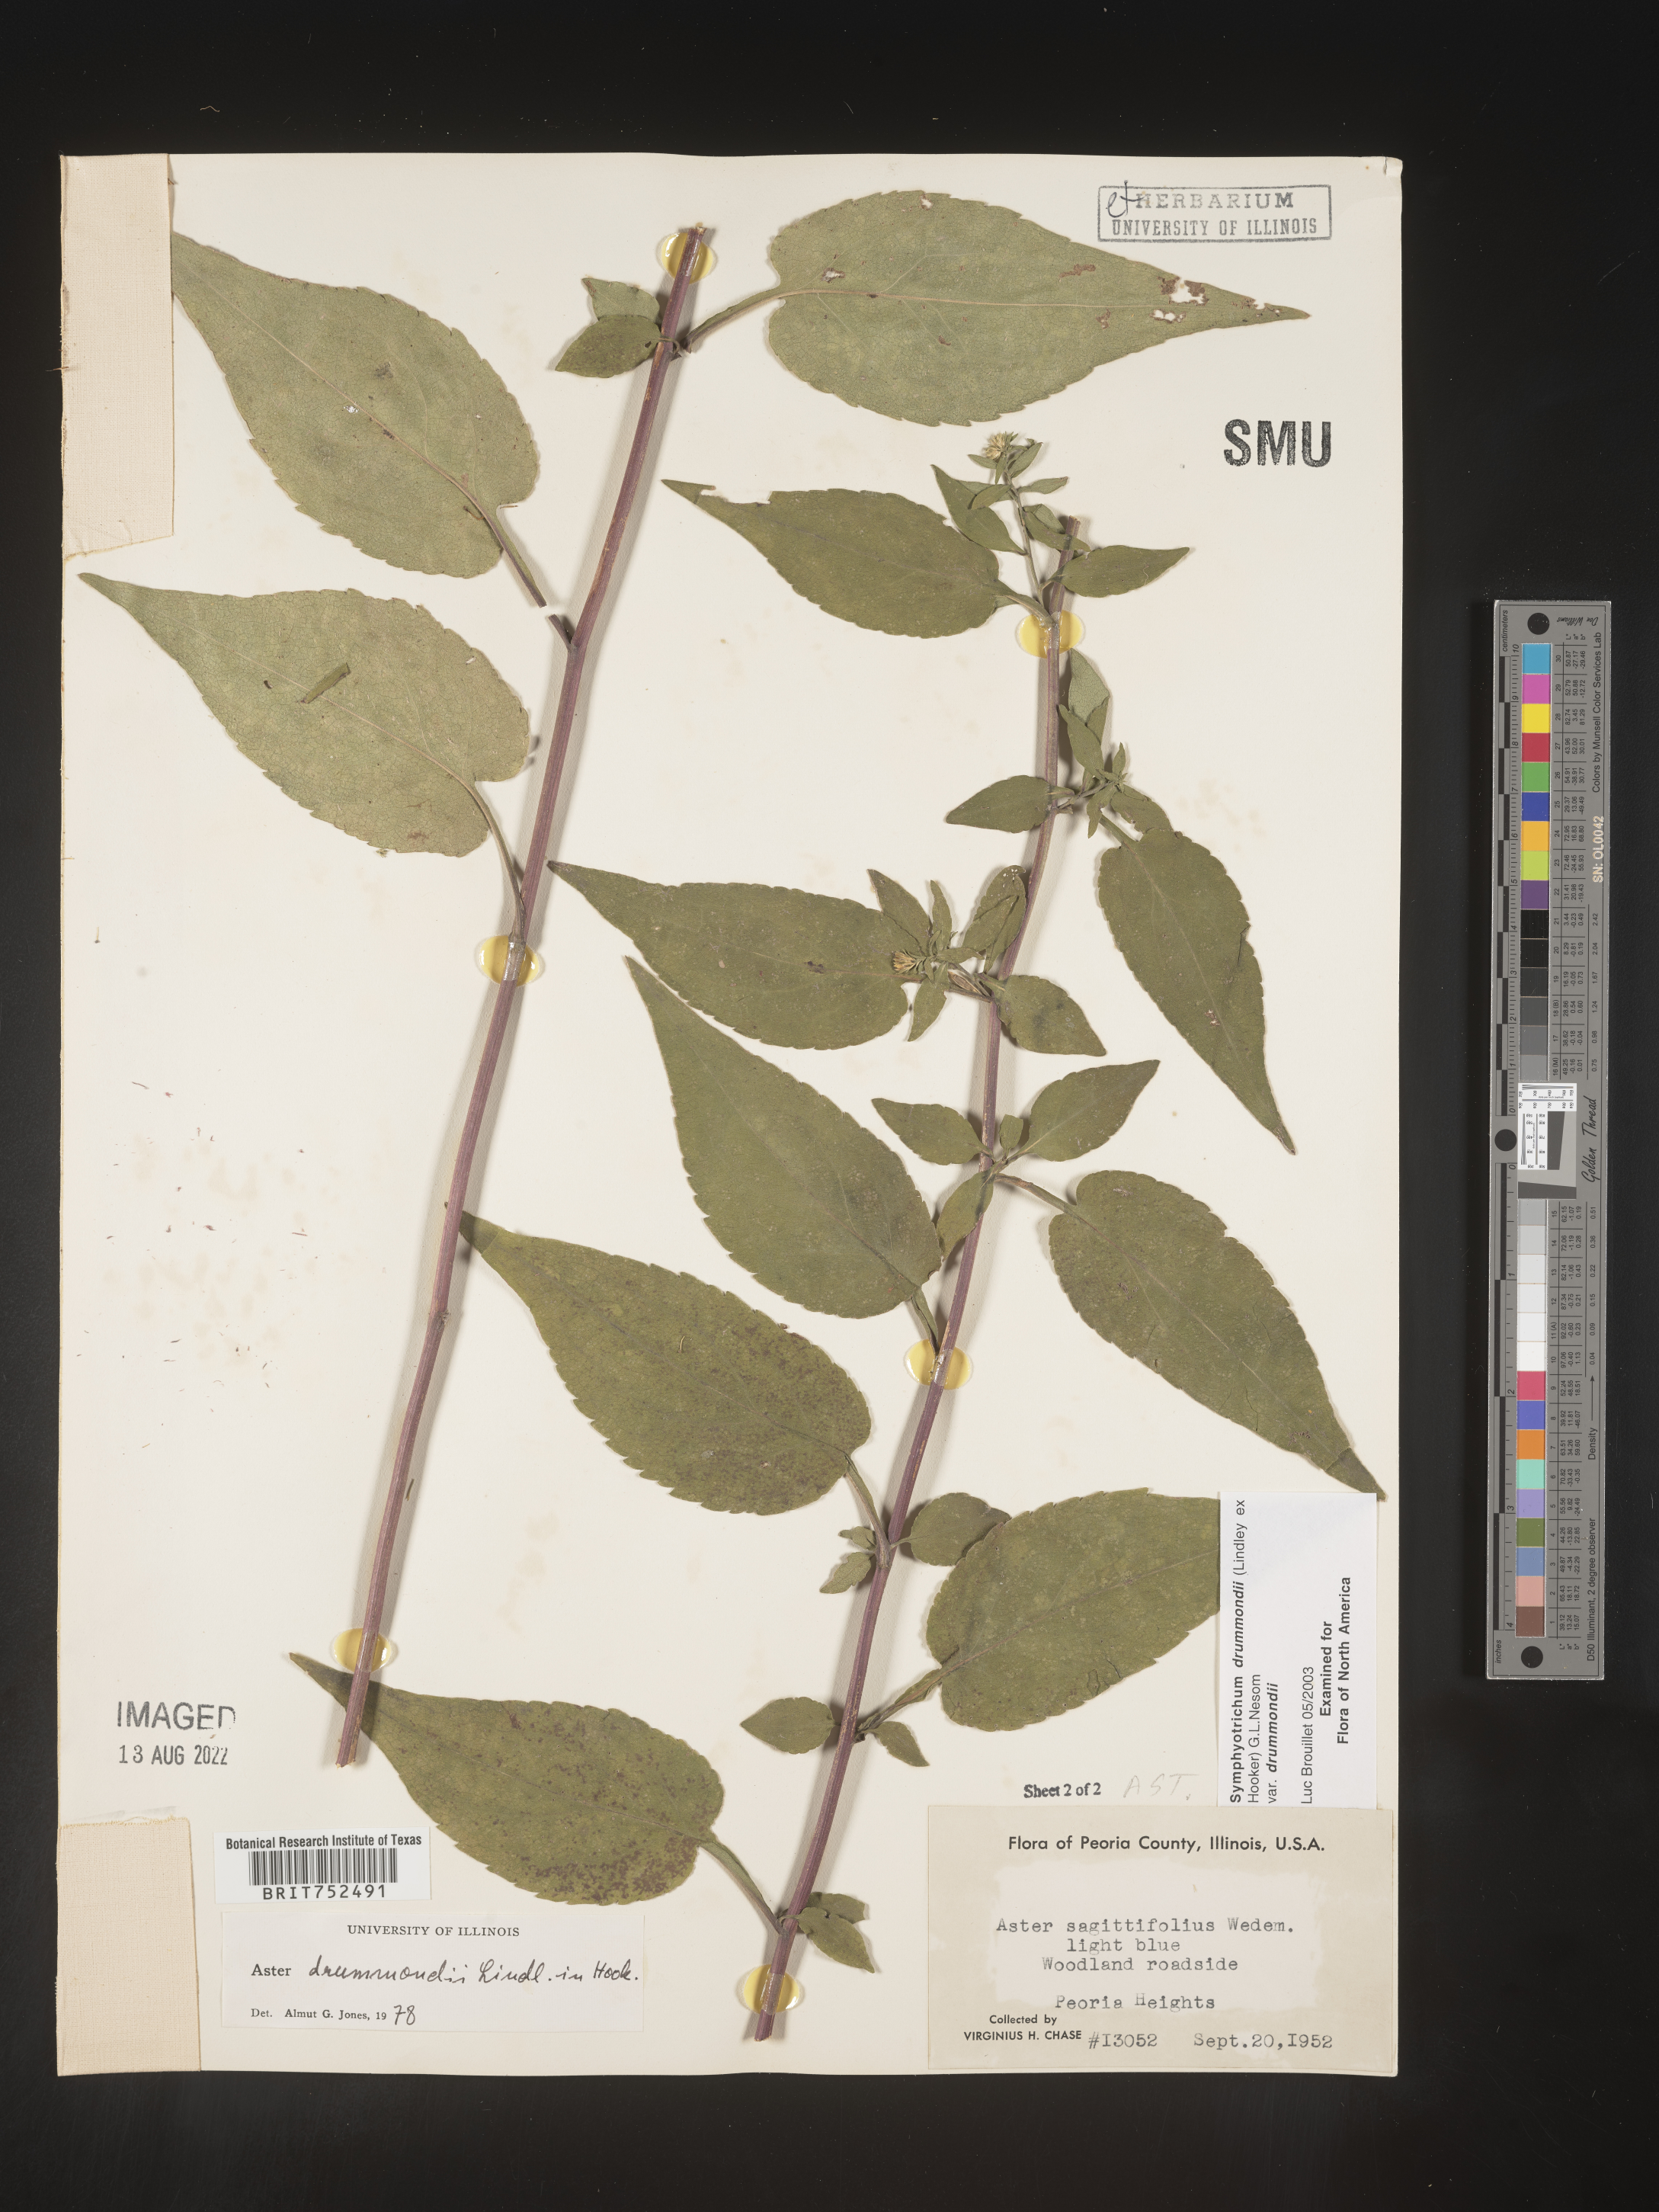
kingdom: Plantae
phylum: Tracheophyta
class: Magnoliopsida
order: Asterales
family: Asteraceae
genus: Symphyotrichum
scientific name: Symphyotrichum drummondii
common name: Drummond's aster
